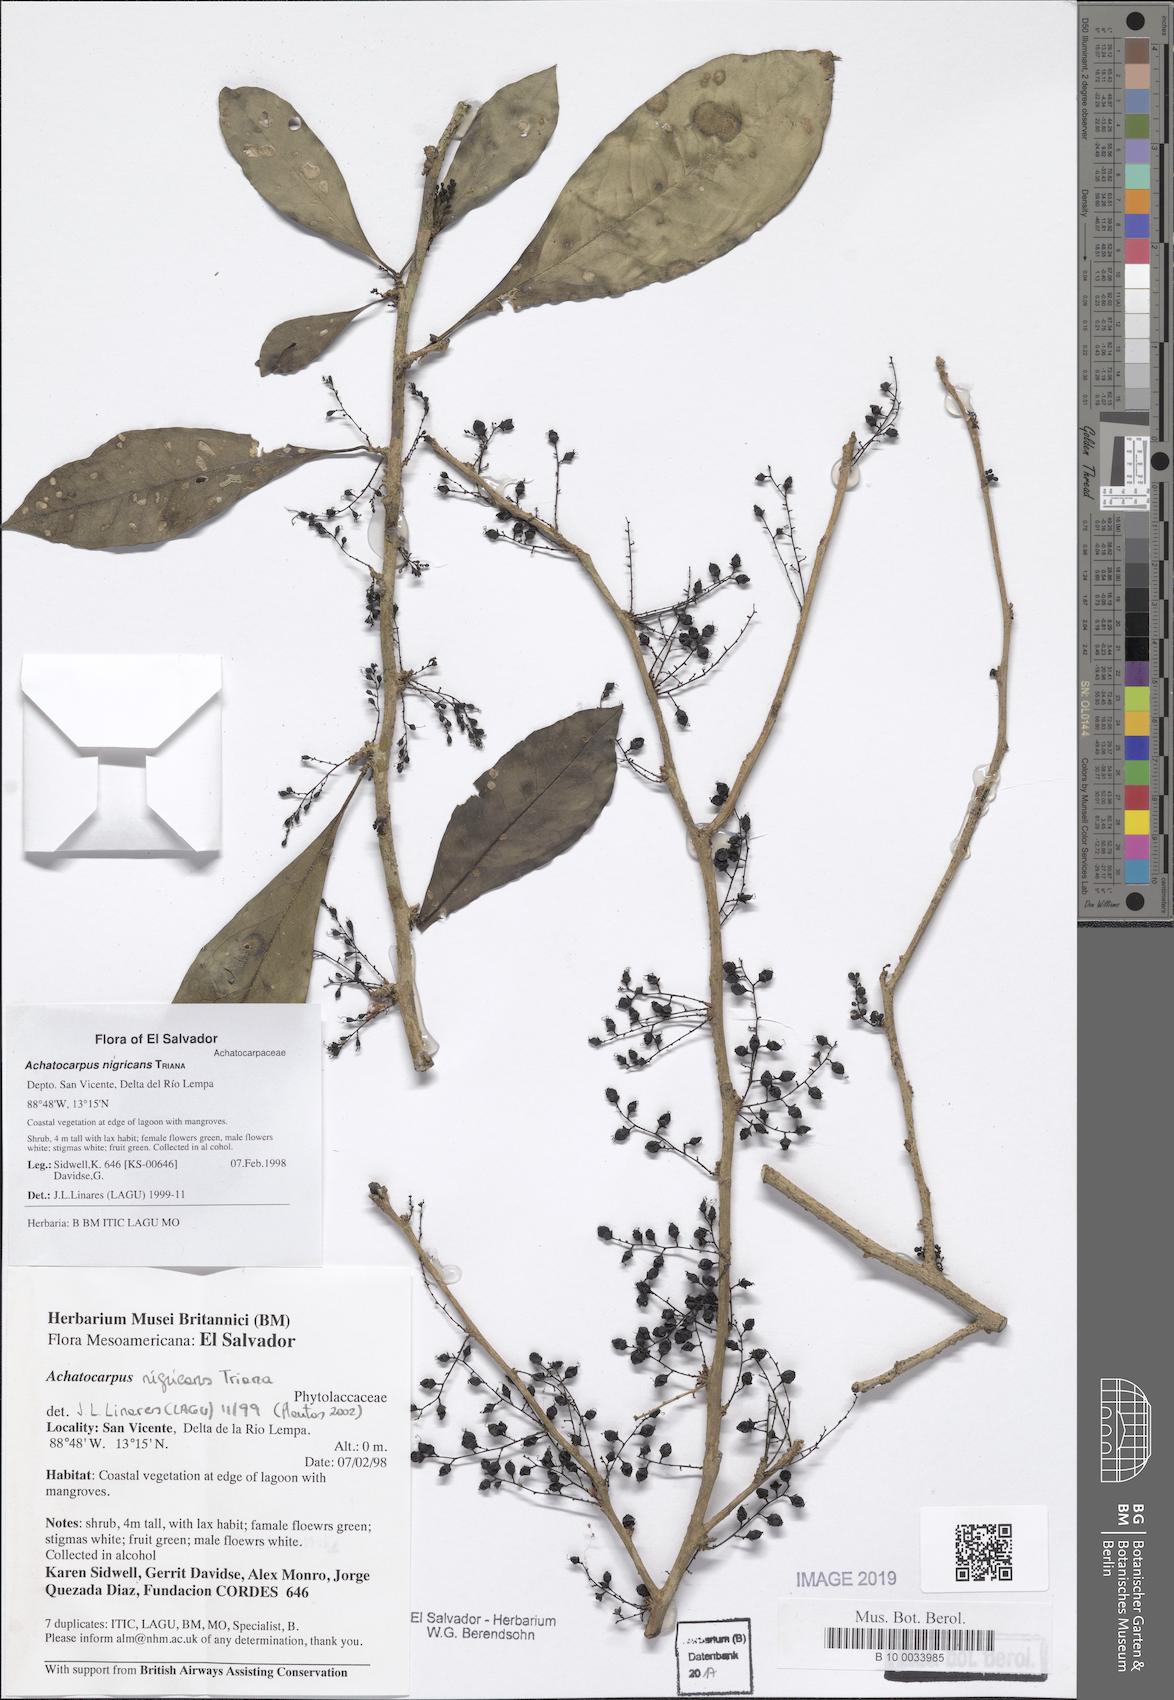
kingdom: Plantae
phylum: Tracheophyta
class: Magnoliopsida
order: Caryophyllales
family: Achatocarpaceae
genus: Achatocarpus
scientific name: Achatocarpus nigricans
